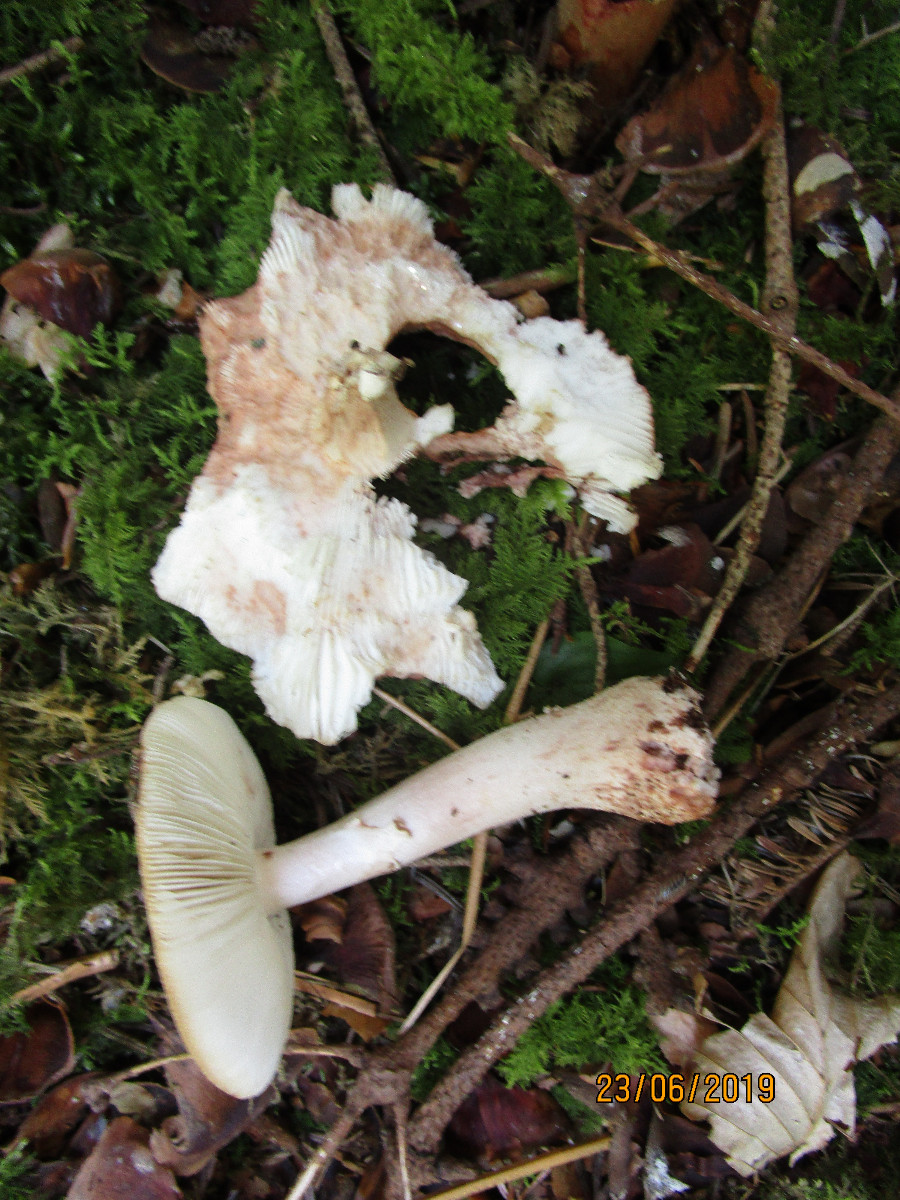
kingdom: Fungi
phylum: Basidiomycota
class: Agaricomycetes
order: Agaricales
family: Amanitaceae
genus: Amanita
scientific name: Amanita rubescens
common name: rødmende fluesvamp
